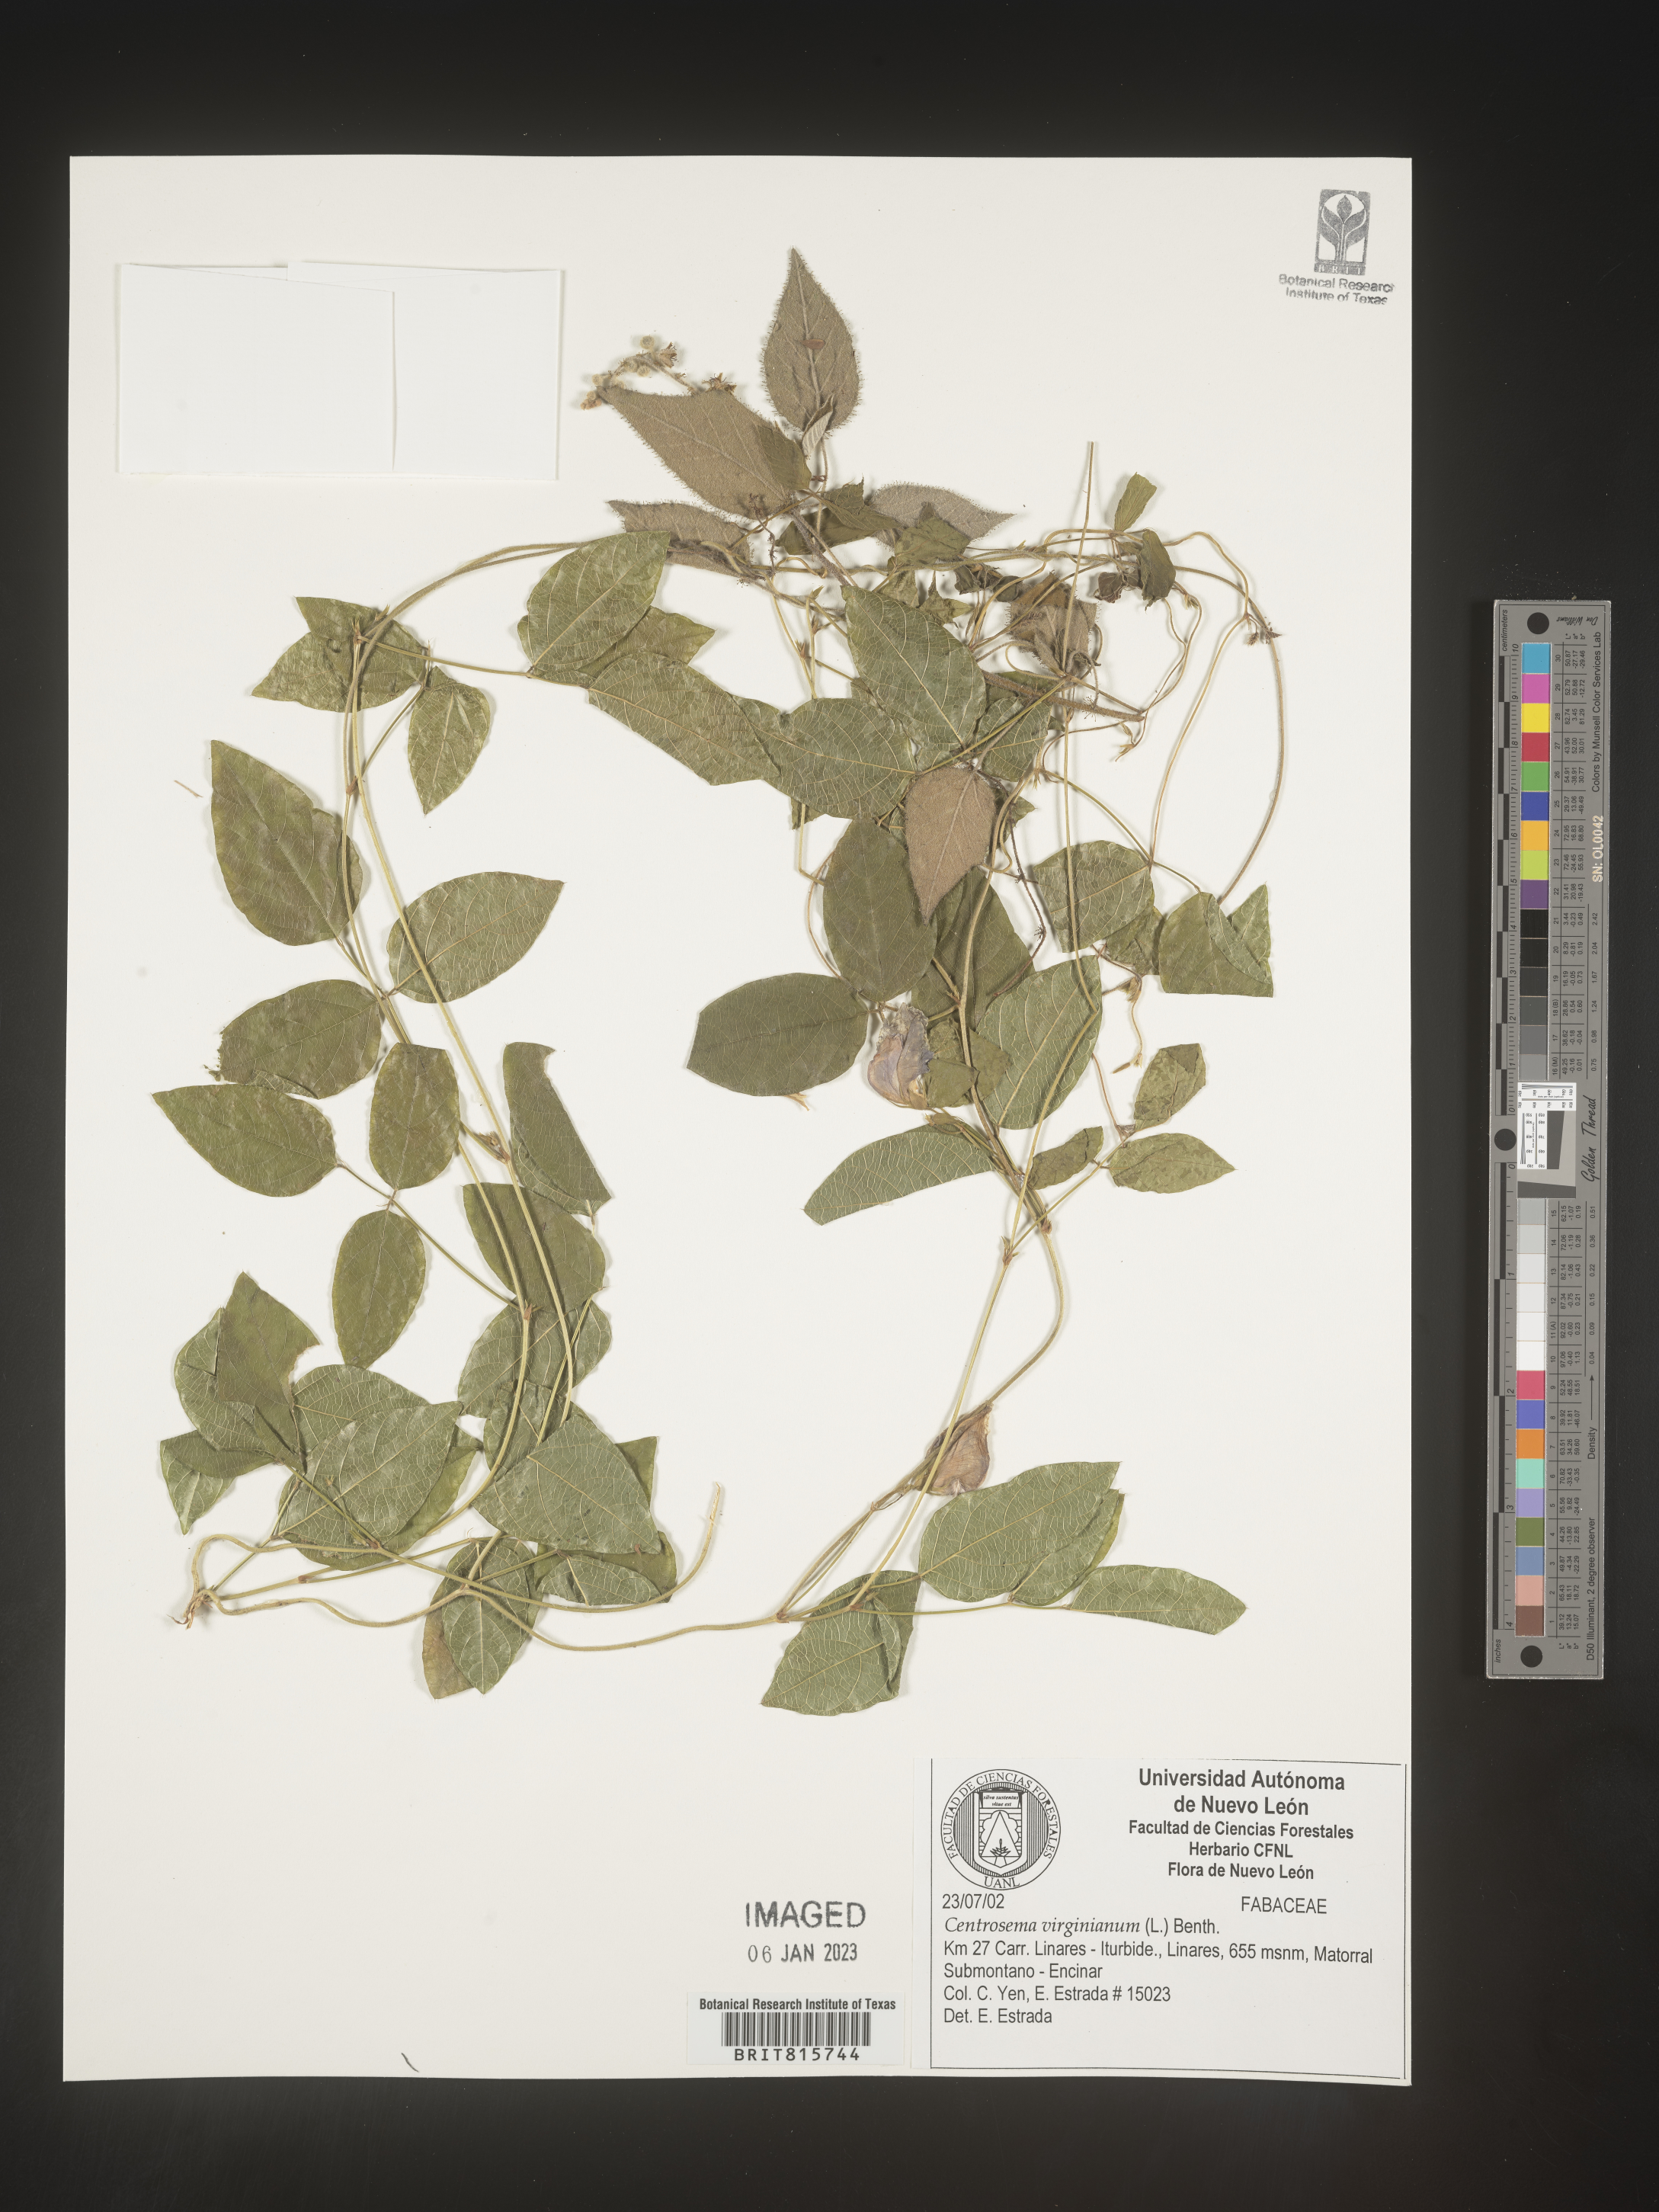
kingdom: Plantae
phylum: Tracheophyta
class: Magnoliopsida
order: Fabales
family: Fabaceae
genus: Centrosema
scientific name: Centrosema
